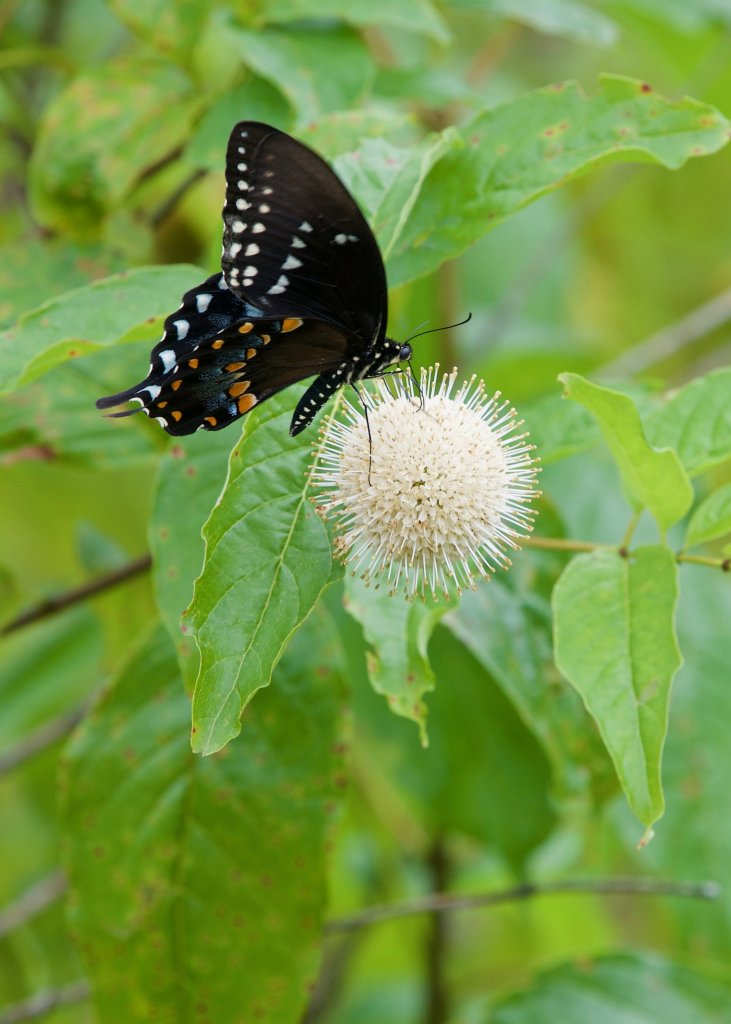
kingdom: Animalia
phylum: Arthropoda
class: Insecta
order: Lepidoptera
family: Papilionidae
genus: Pterourus
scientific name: Pterourus troilus
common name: Spicebush Swallowtail
